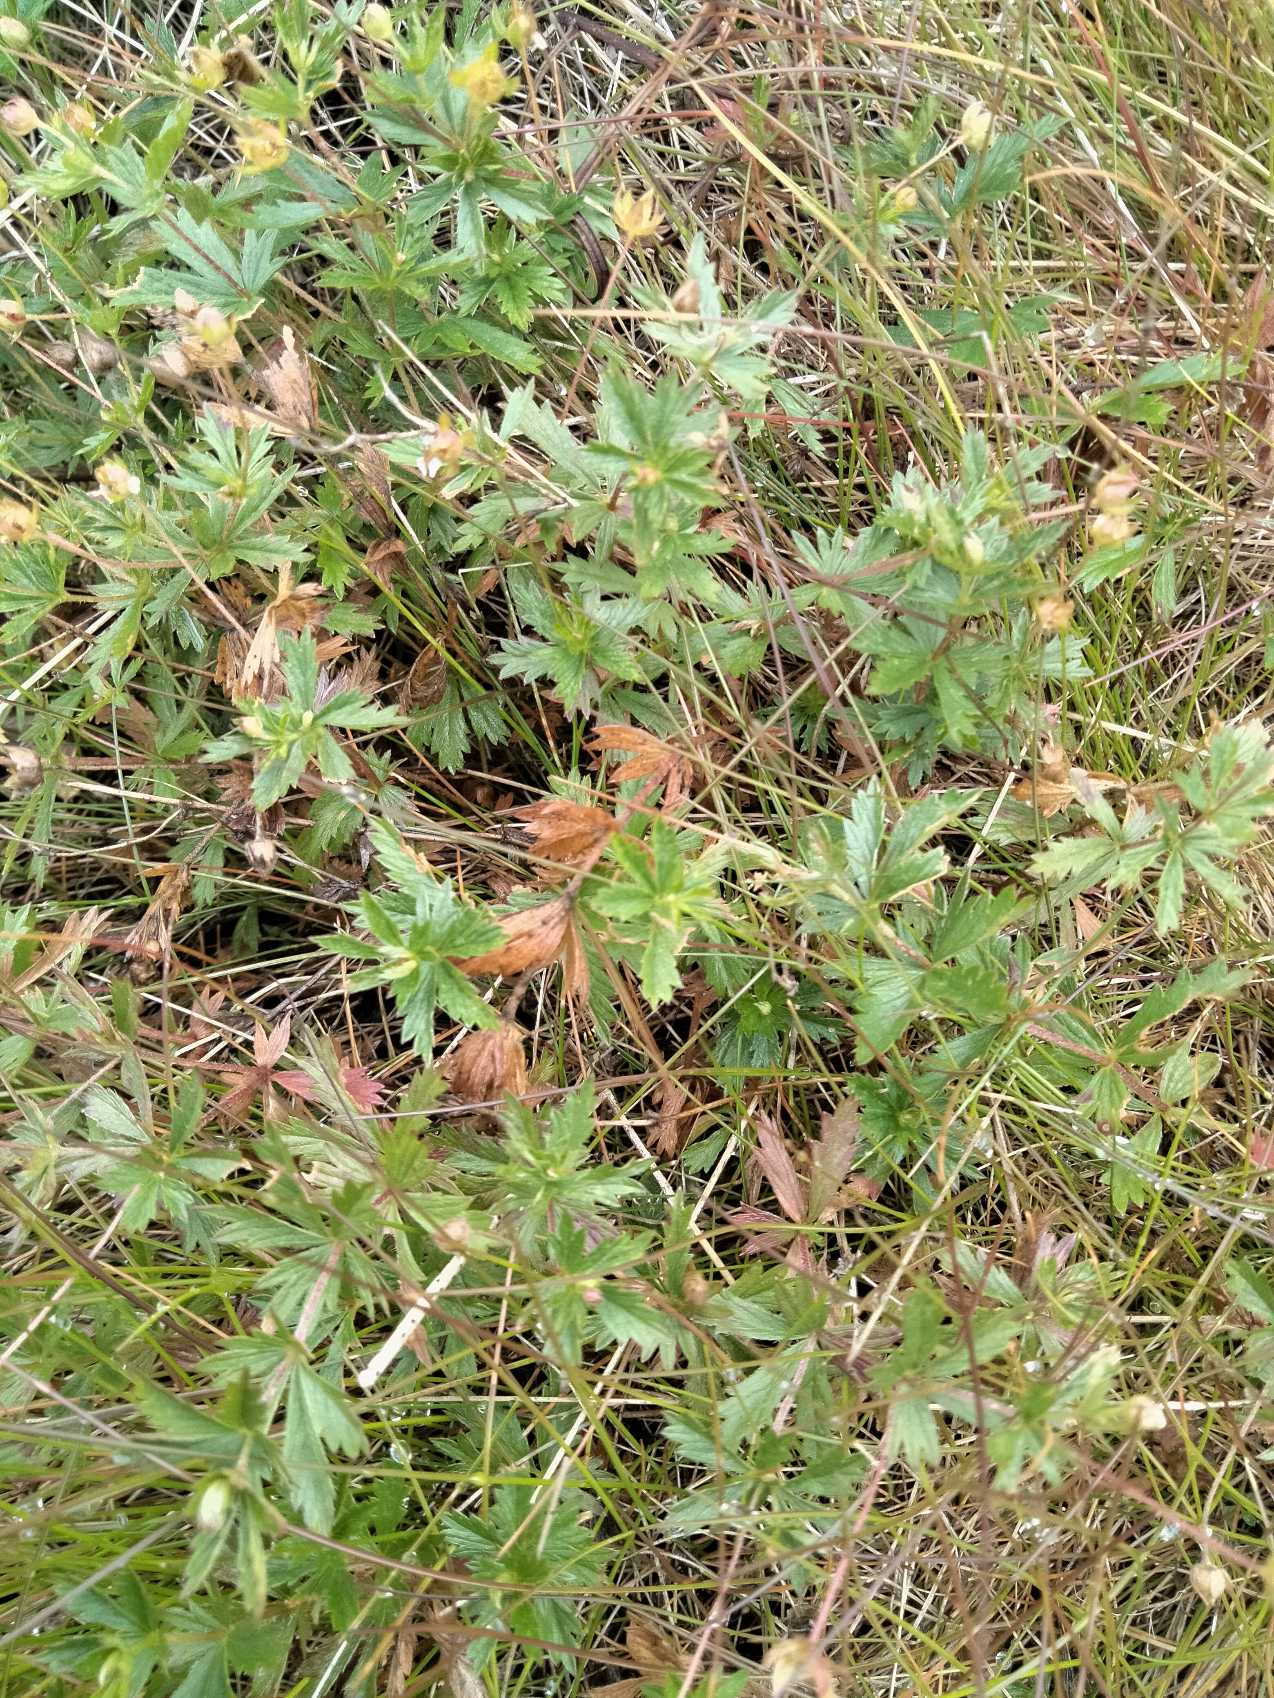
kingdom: Plantae
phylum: Tracheophyta
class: Magnoliopsida
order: Rosales
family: Rosaceae
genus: Potentilla
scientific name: Potentilla erecta
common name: Tormentil
